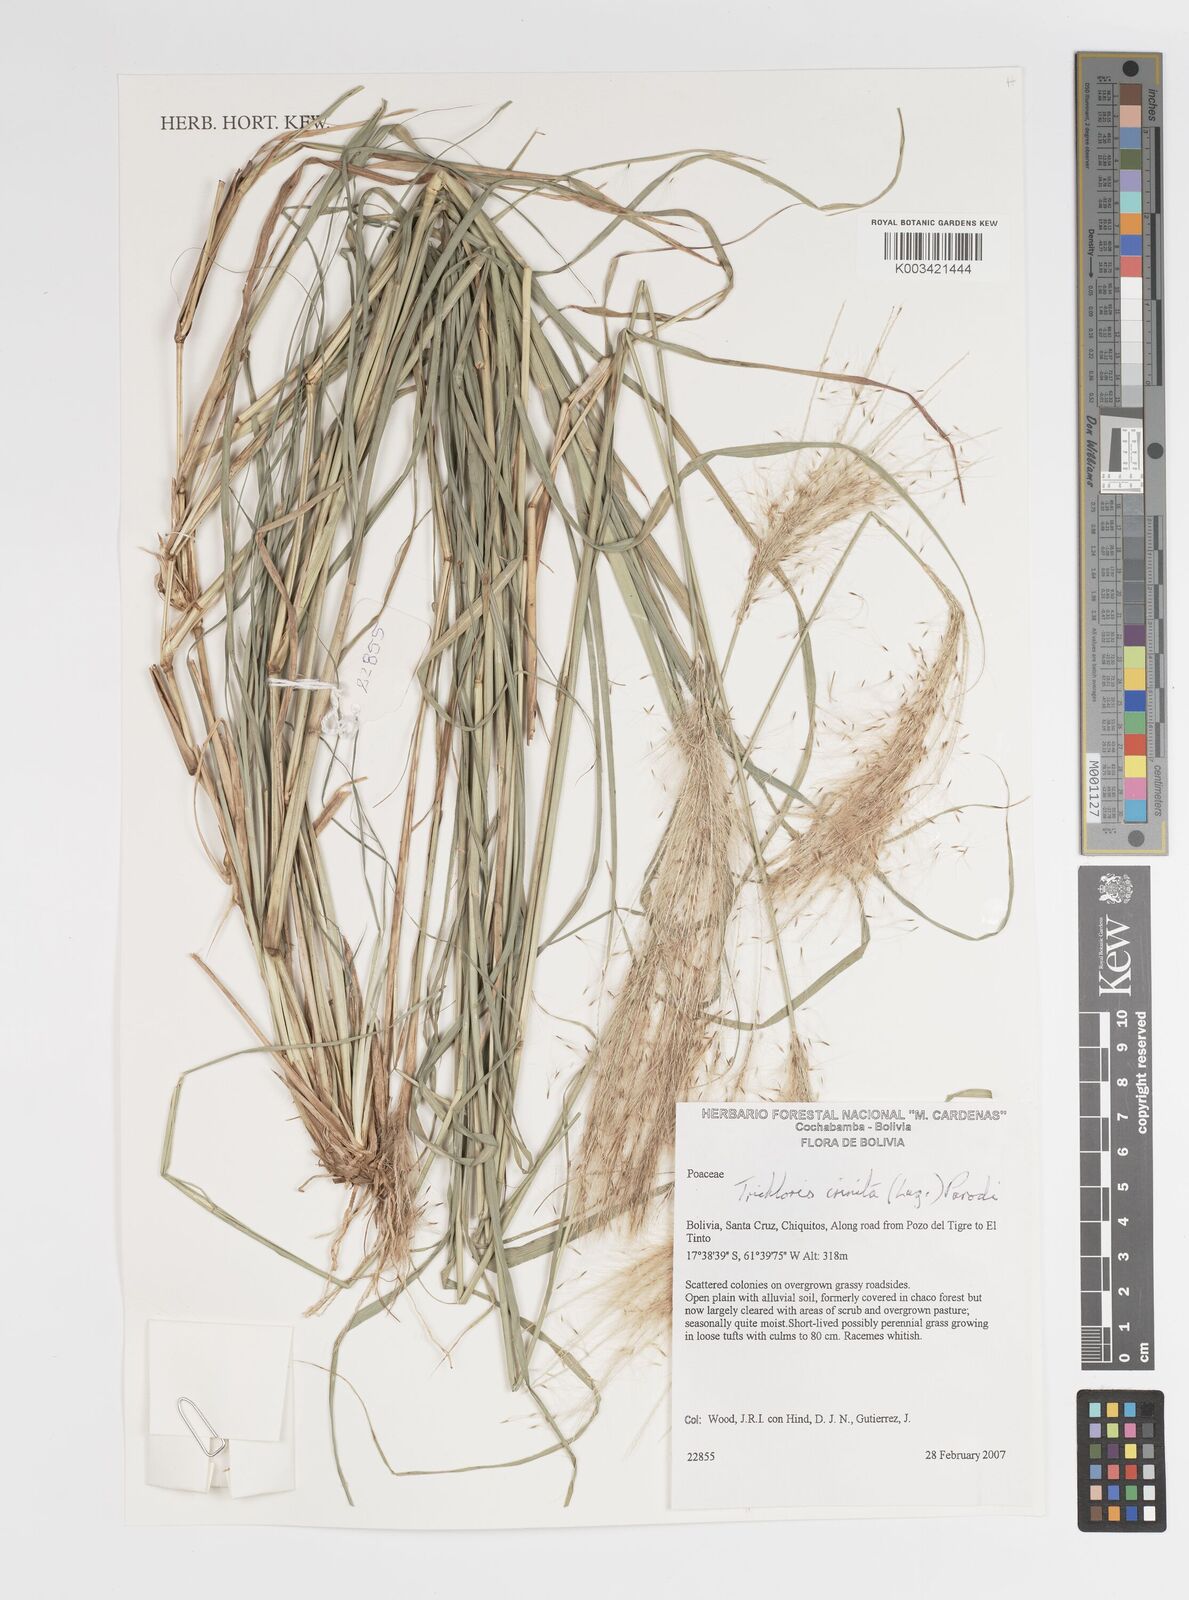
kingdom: Plantae
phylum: Tracheophyta
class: Liliopsida
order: Poales
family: Poaceae
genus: Leptochloa
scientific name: Leptochloa crinita
